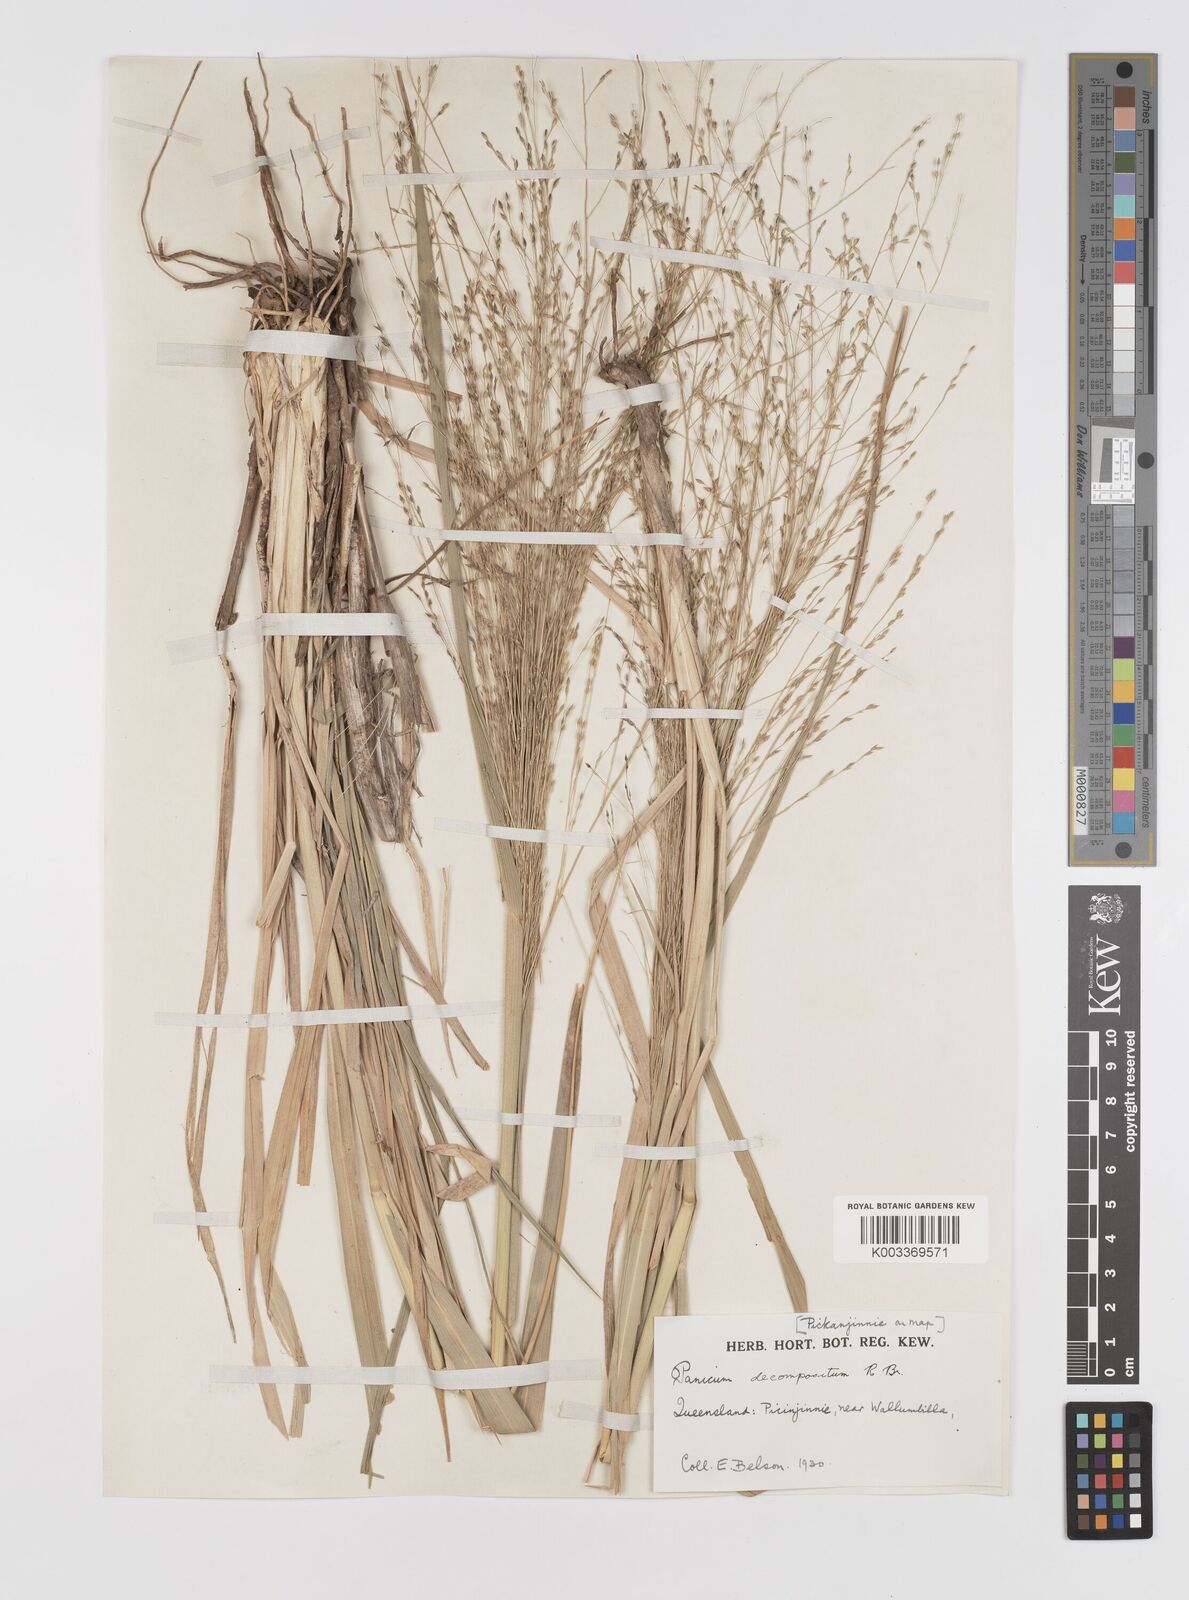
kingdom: Plantae
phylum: Tracheophyta
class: Liliopsida
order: Poales
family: Poaceae
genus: Panicum
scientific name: Panicum decompositum
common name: Australian millet
